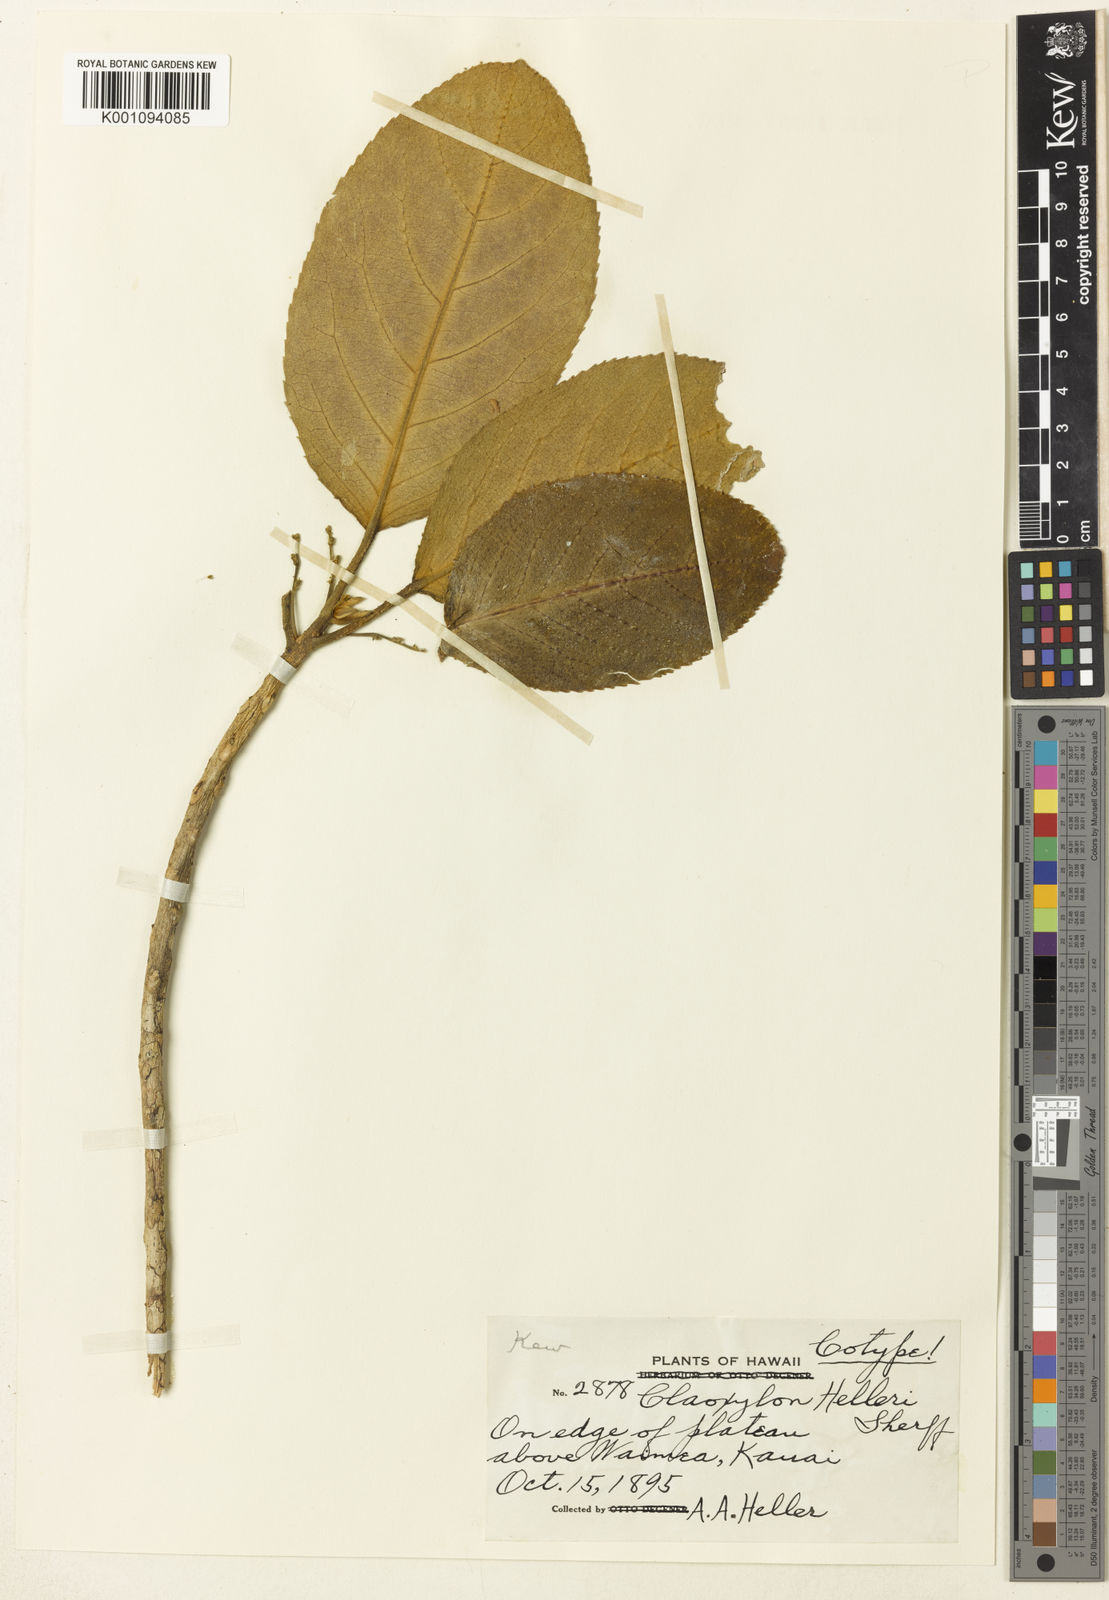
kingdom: Plantae
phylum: Tracheophyta
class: Magnoliopsida
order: Malpighiales
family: Euphorbiaceae
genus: Claoxylon
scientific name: Claoxylon sandwicense
